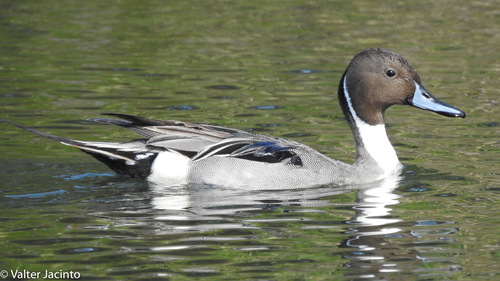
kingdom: Animalia
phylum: Chordata
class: Aves
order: Anseriformes
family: Anatidae
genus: Anas
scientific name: Anas acuta
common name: Northern pintail
